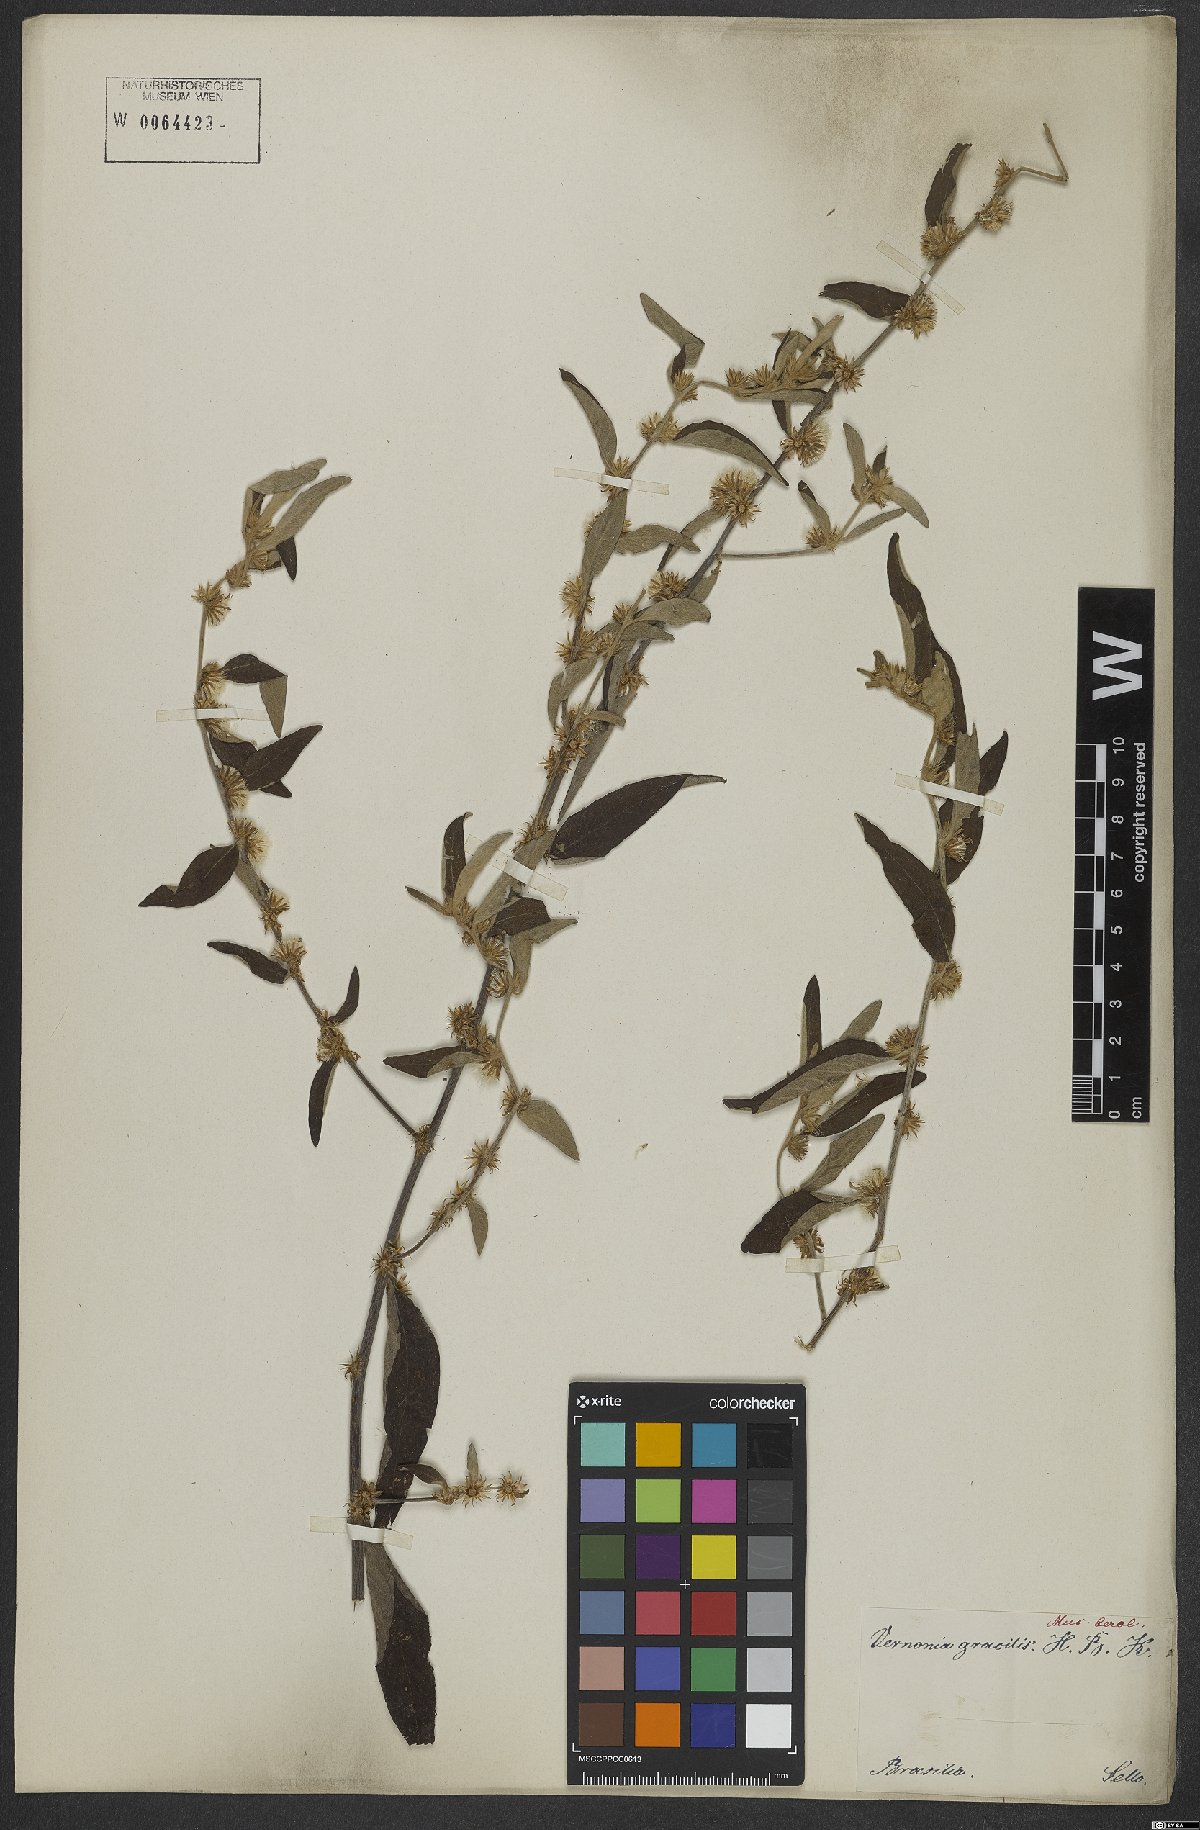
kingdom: Plantae
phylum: Tracheophyta
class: Magnoliopsida
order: Asterales
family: Asteraceae
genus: Lepidaploa
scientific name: Lepidaploa gracilis
